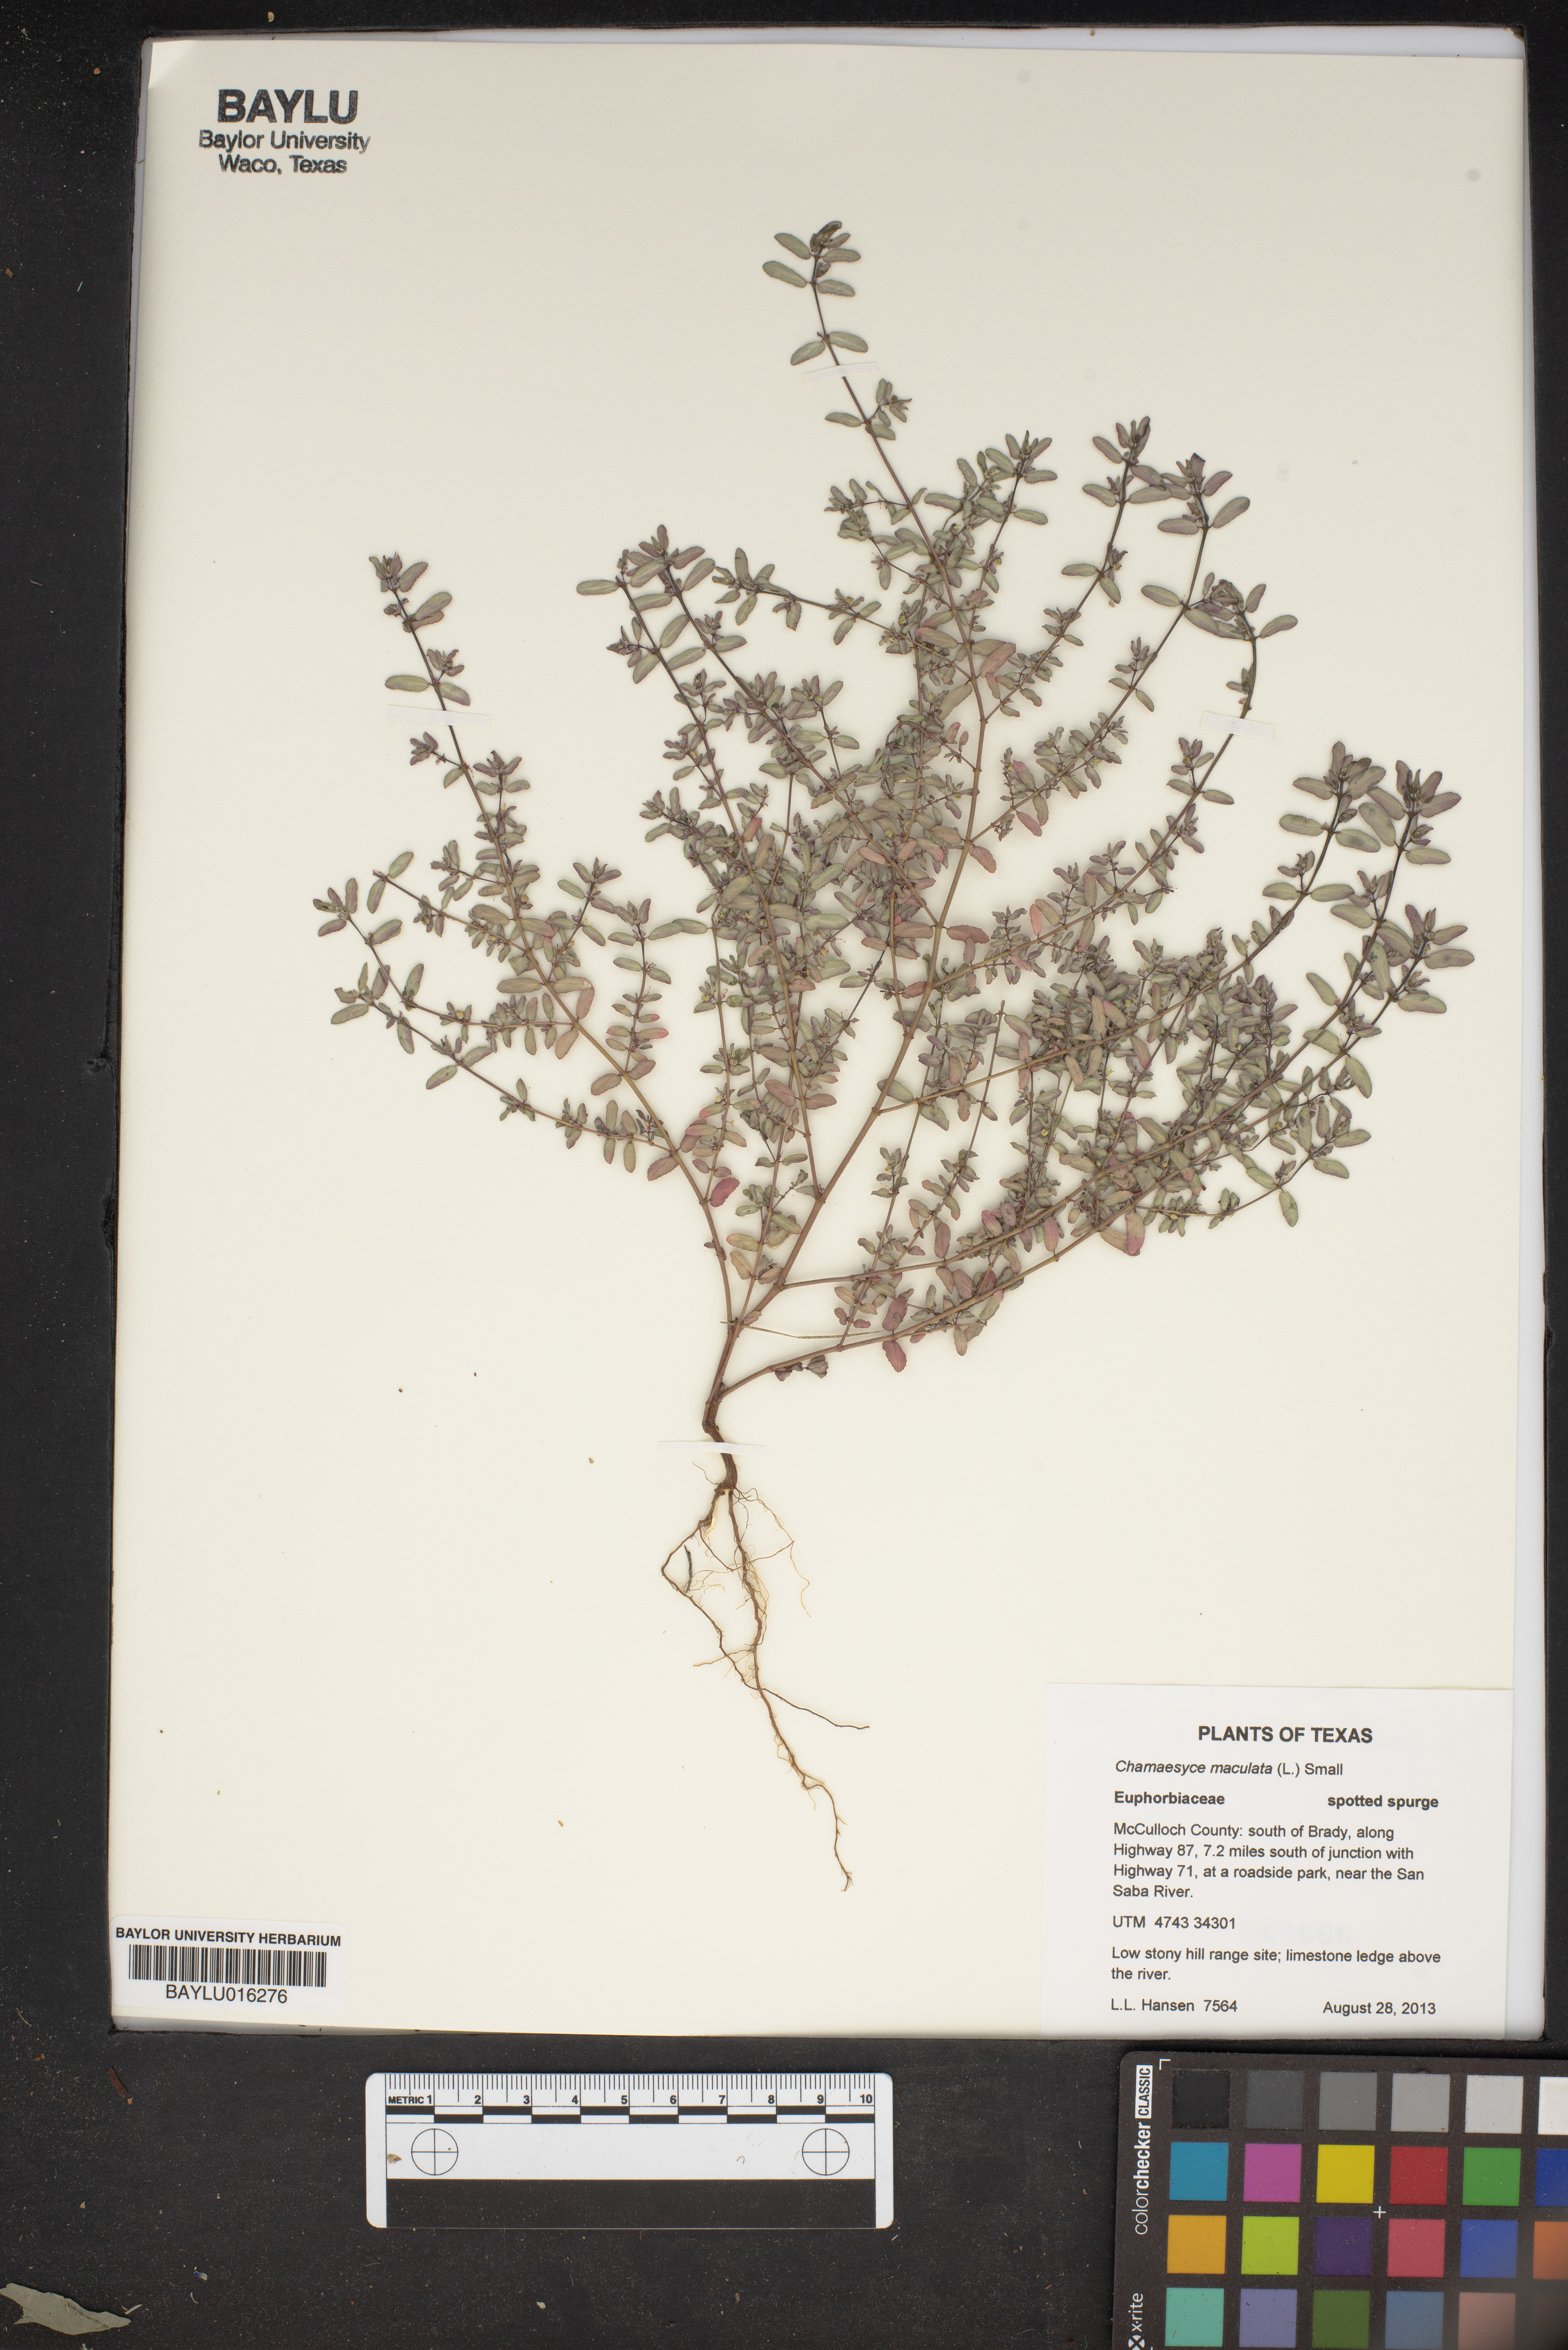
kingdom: Plantae
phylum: Tracheophyta
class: Magnoliopsida
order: Malpighiales
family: Euphorbiaceae
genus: Euphorbia
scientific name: Euphorbia maculata
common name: Spotted spurge
